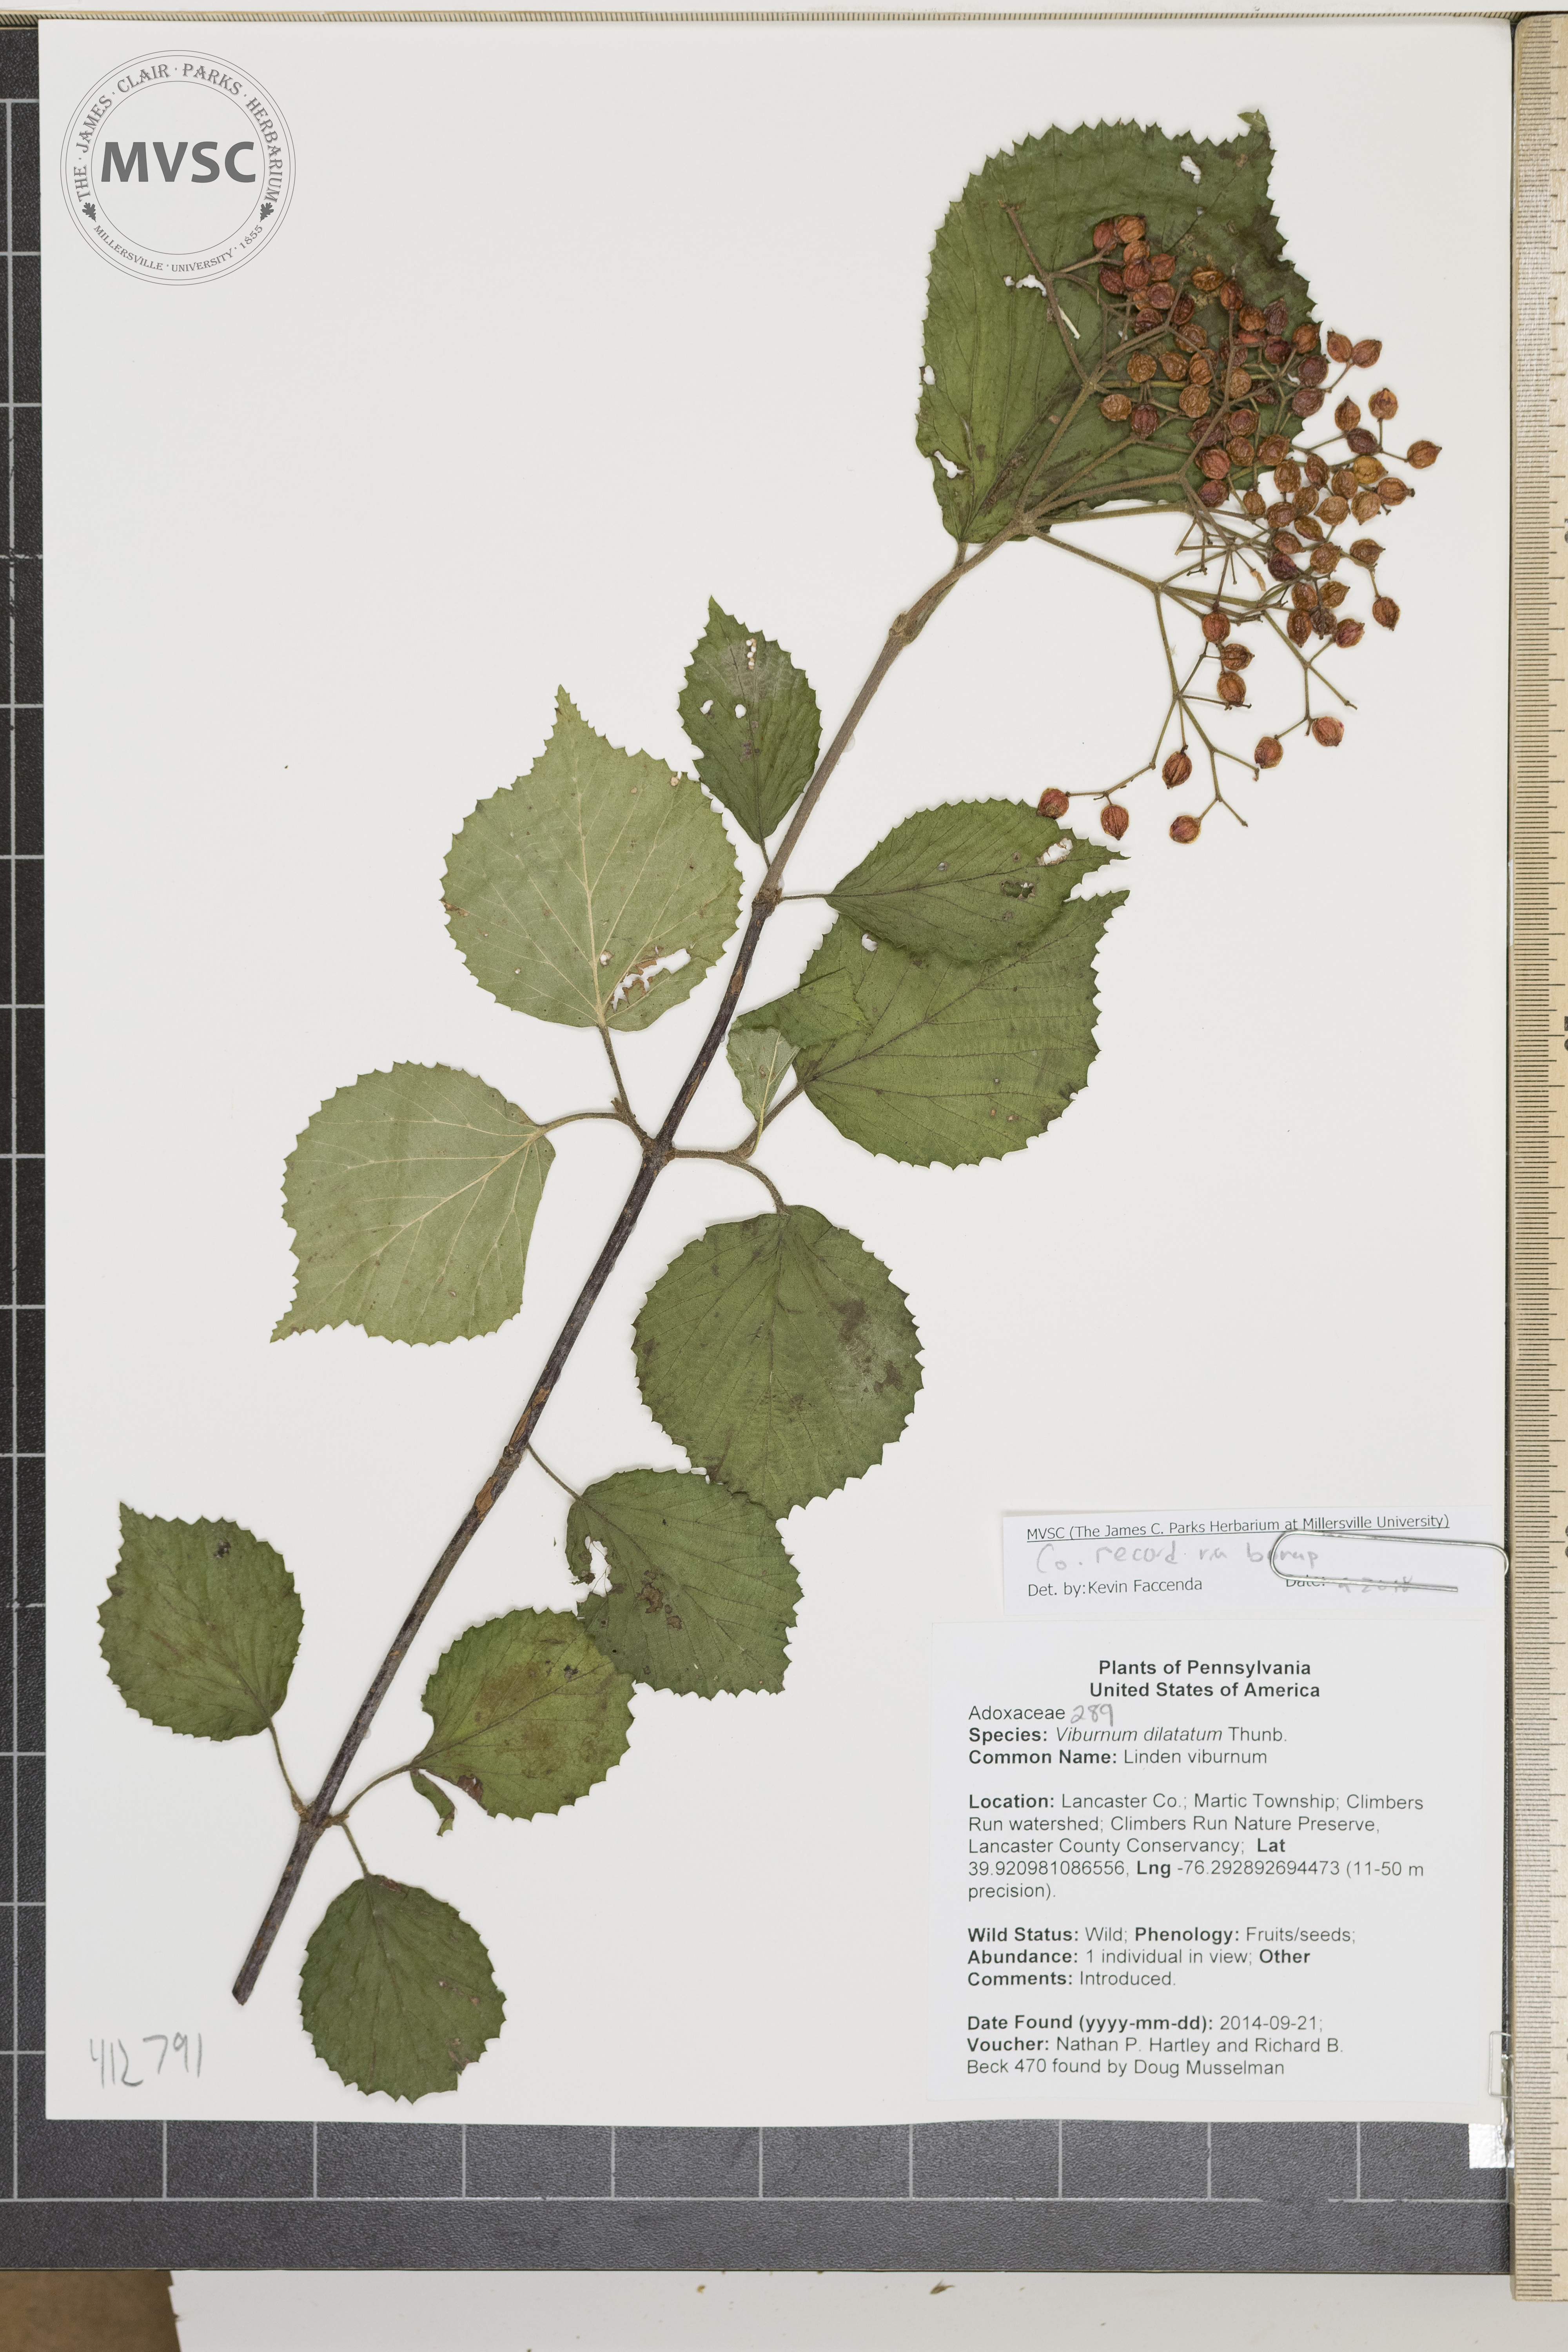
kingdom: Plantae
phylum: Tracheophyta
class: Magnoliopsida
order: Dipsacales
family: Viburnaceae
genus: Viburnum
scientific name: Viburnum dilatatum
